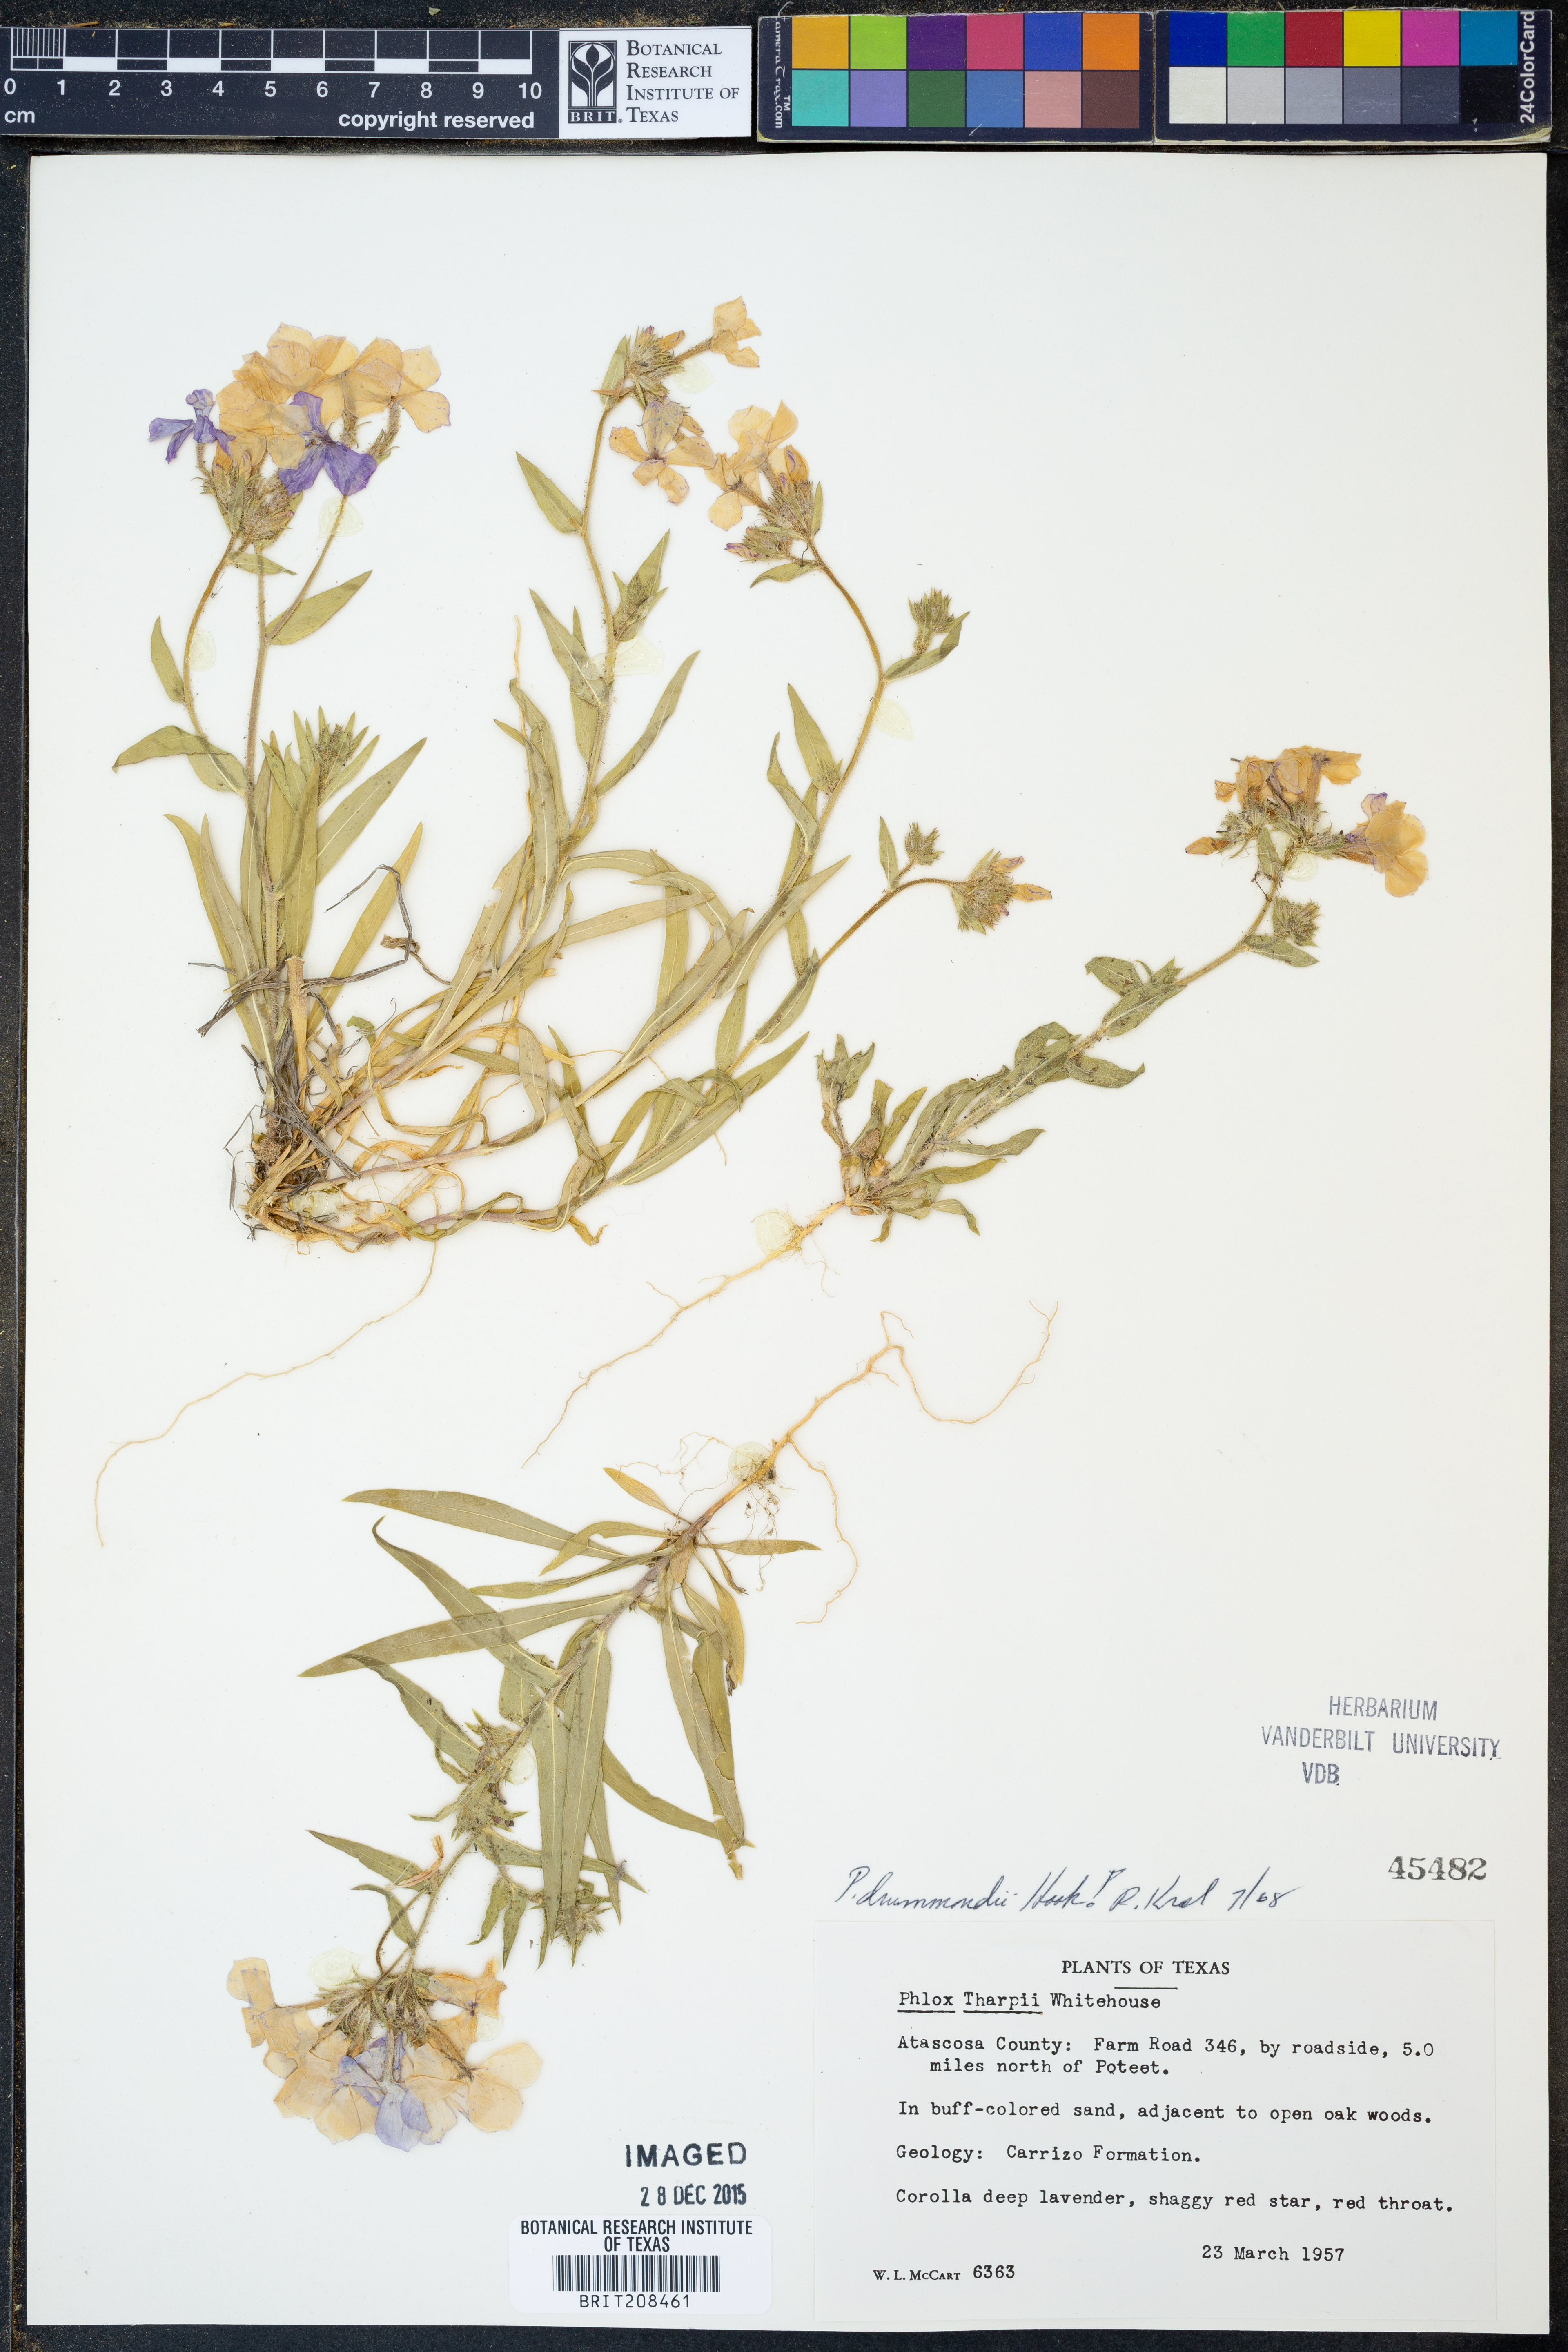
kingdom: Plantae
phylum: Tracheophyta
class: Magnoliopsida
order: Ericales
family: Polemoniaceae
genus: Phlox
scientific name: Phlox drummondii
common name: Drummond's phlox
